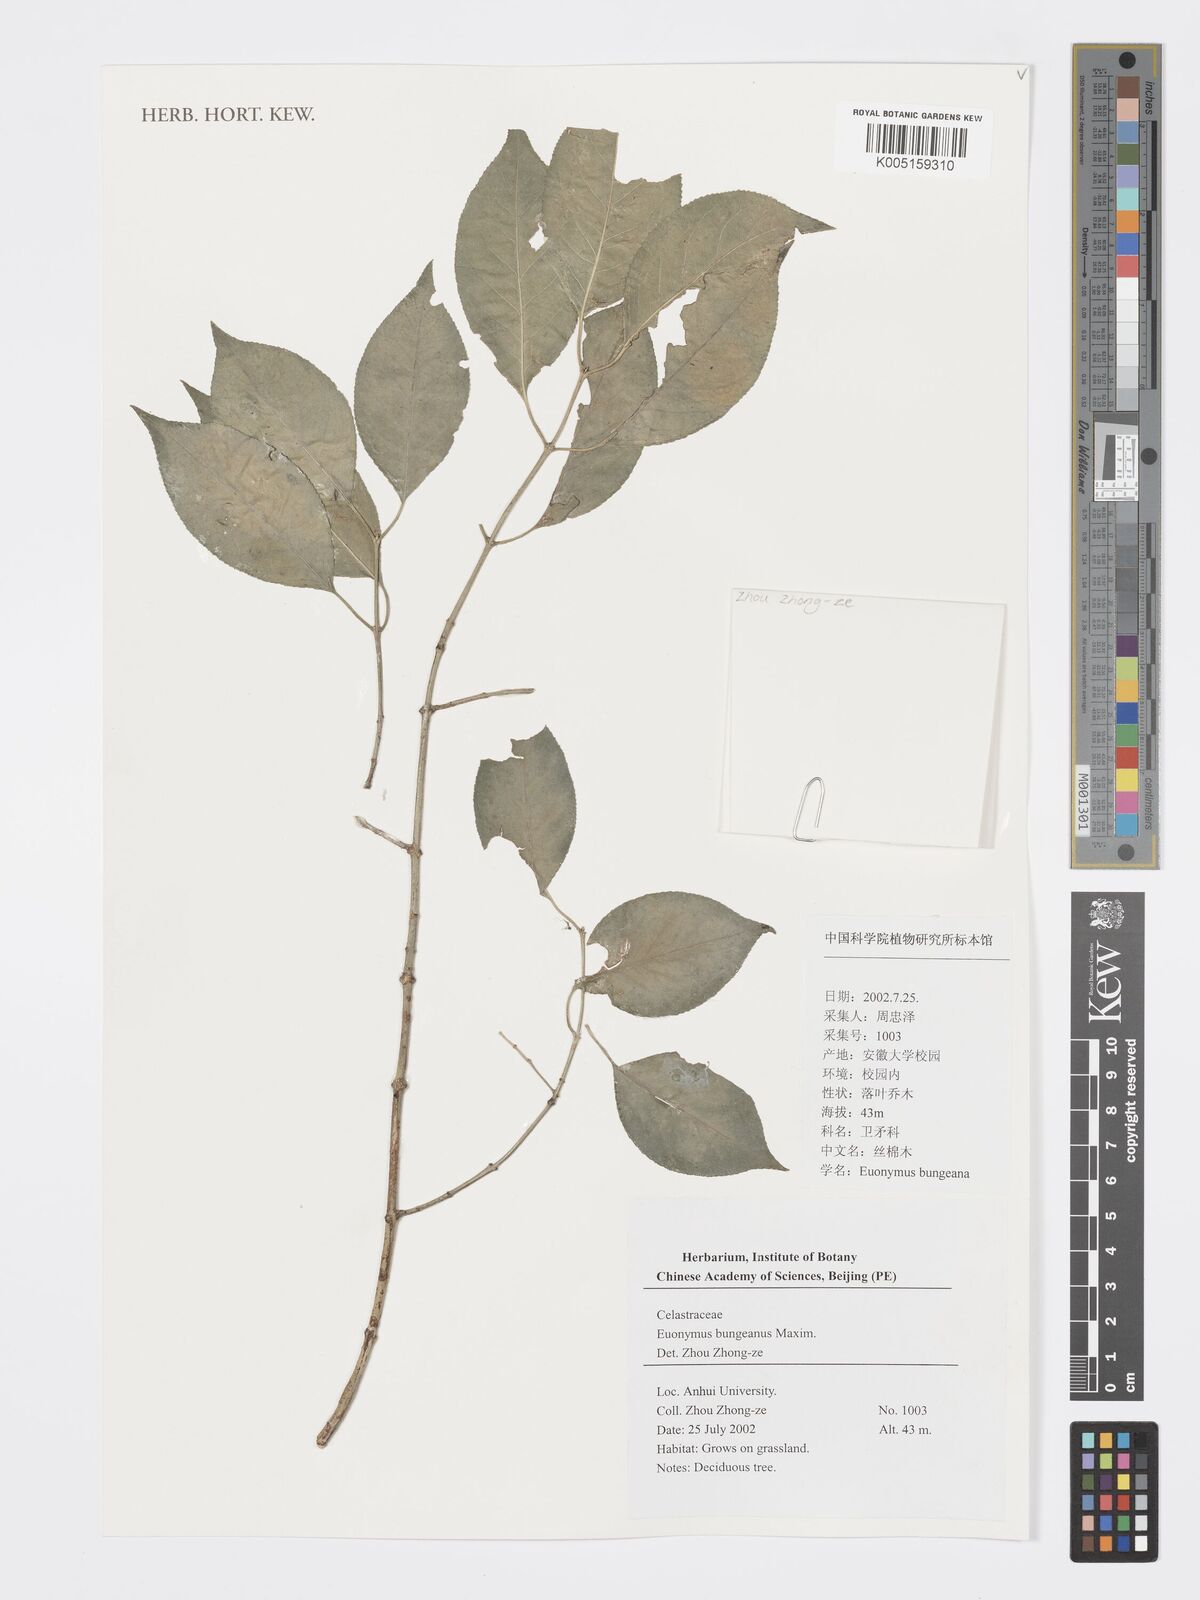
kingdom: Plantae
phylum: Tracheophyta
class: Magnoliopsida
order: Celastrales
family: Celastraceae
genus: Euonymus
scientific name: Euonymus maackii
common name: Hamilton's spindletree
